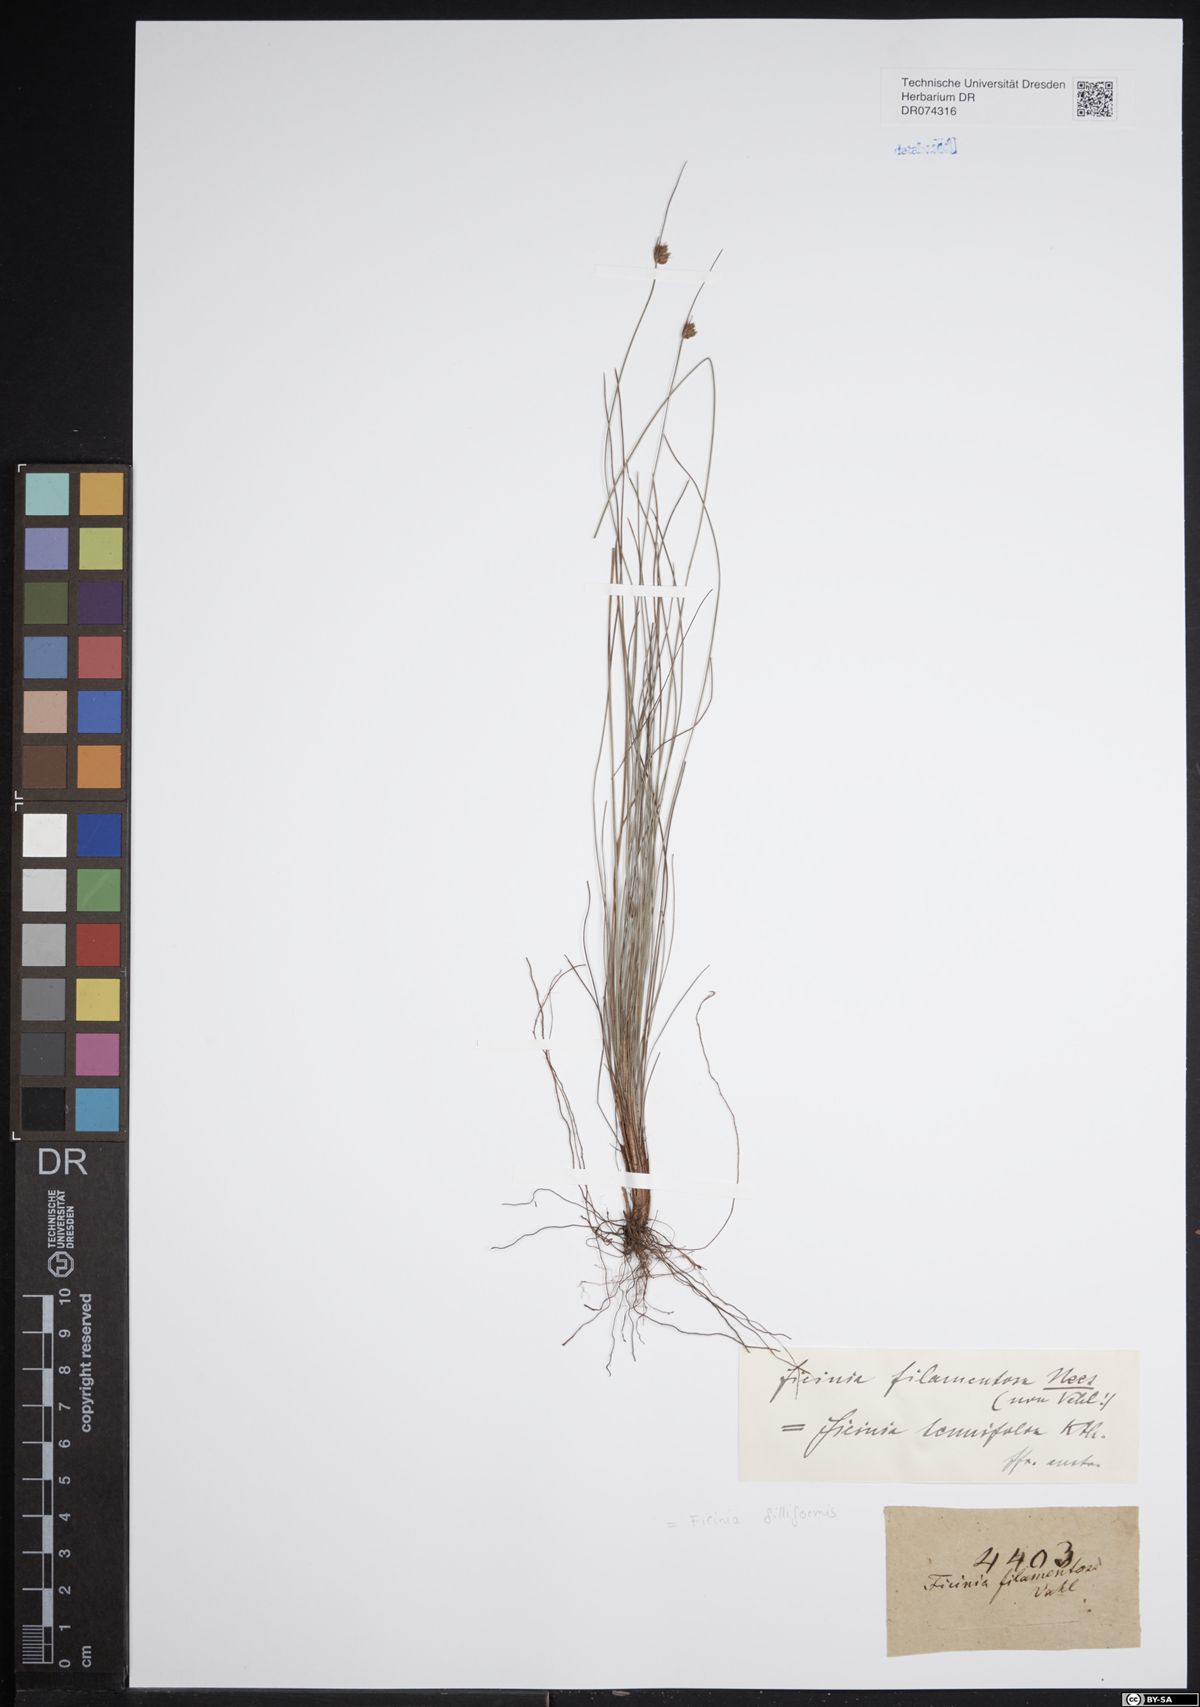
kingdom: Plantae
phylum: Tracheophyta
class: Liliopsida
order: Poales
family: Cyperaceae
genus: Ficinia
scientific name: Ficinia filiformis
